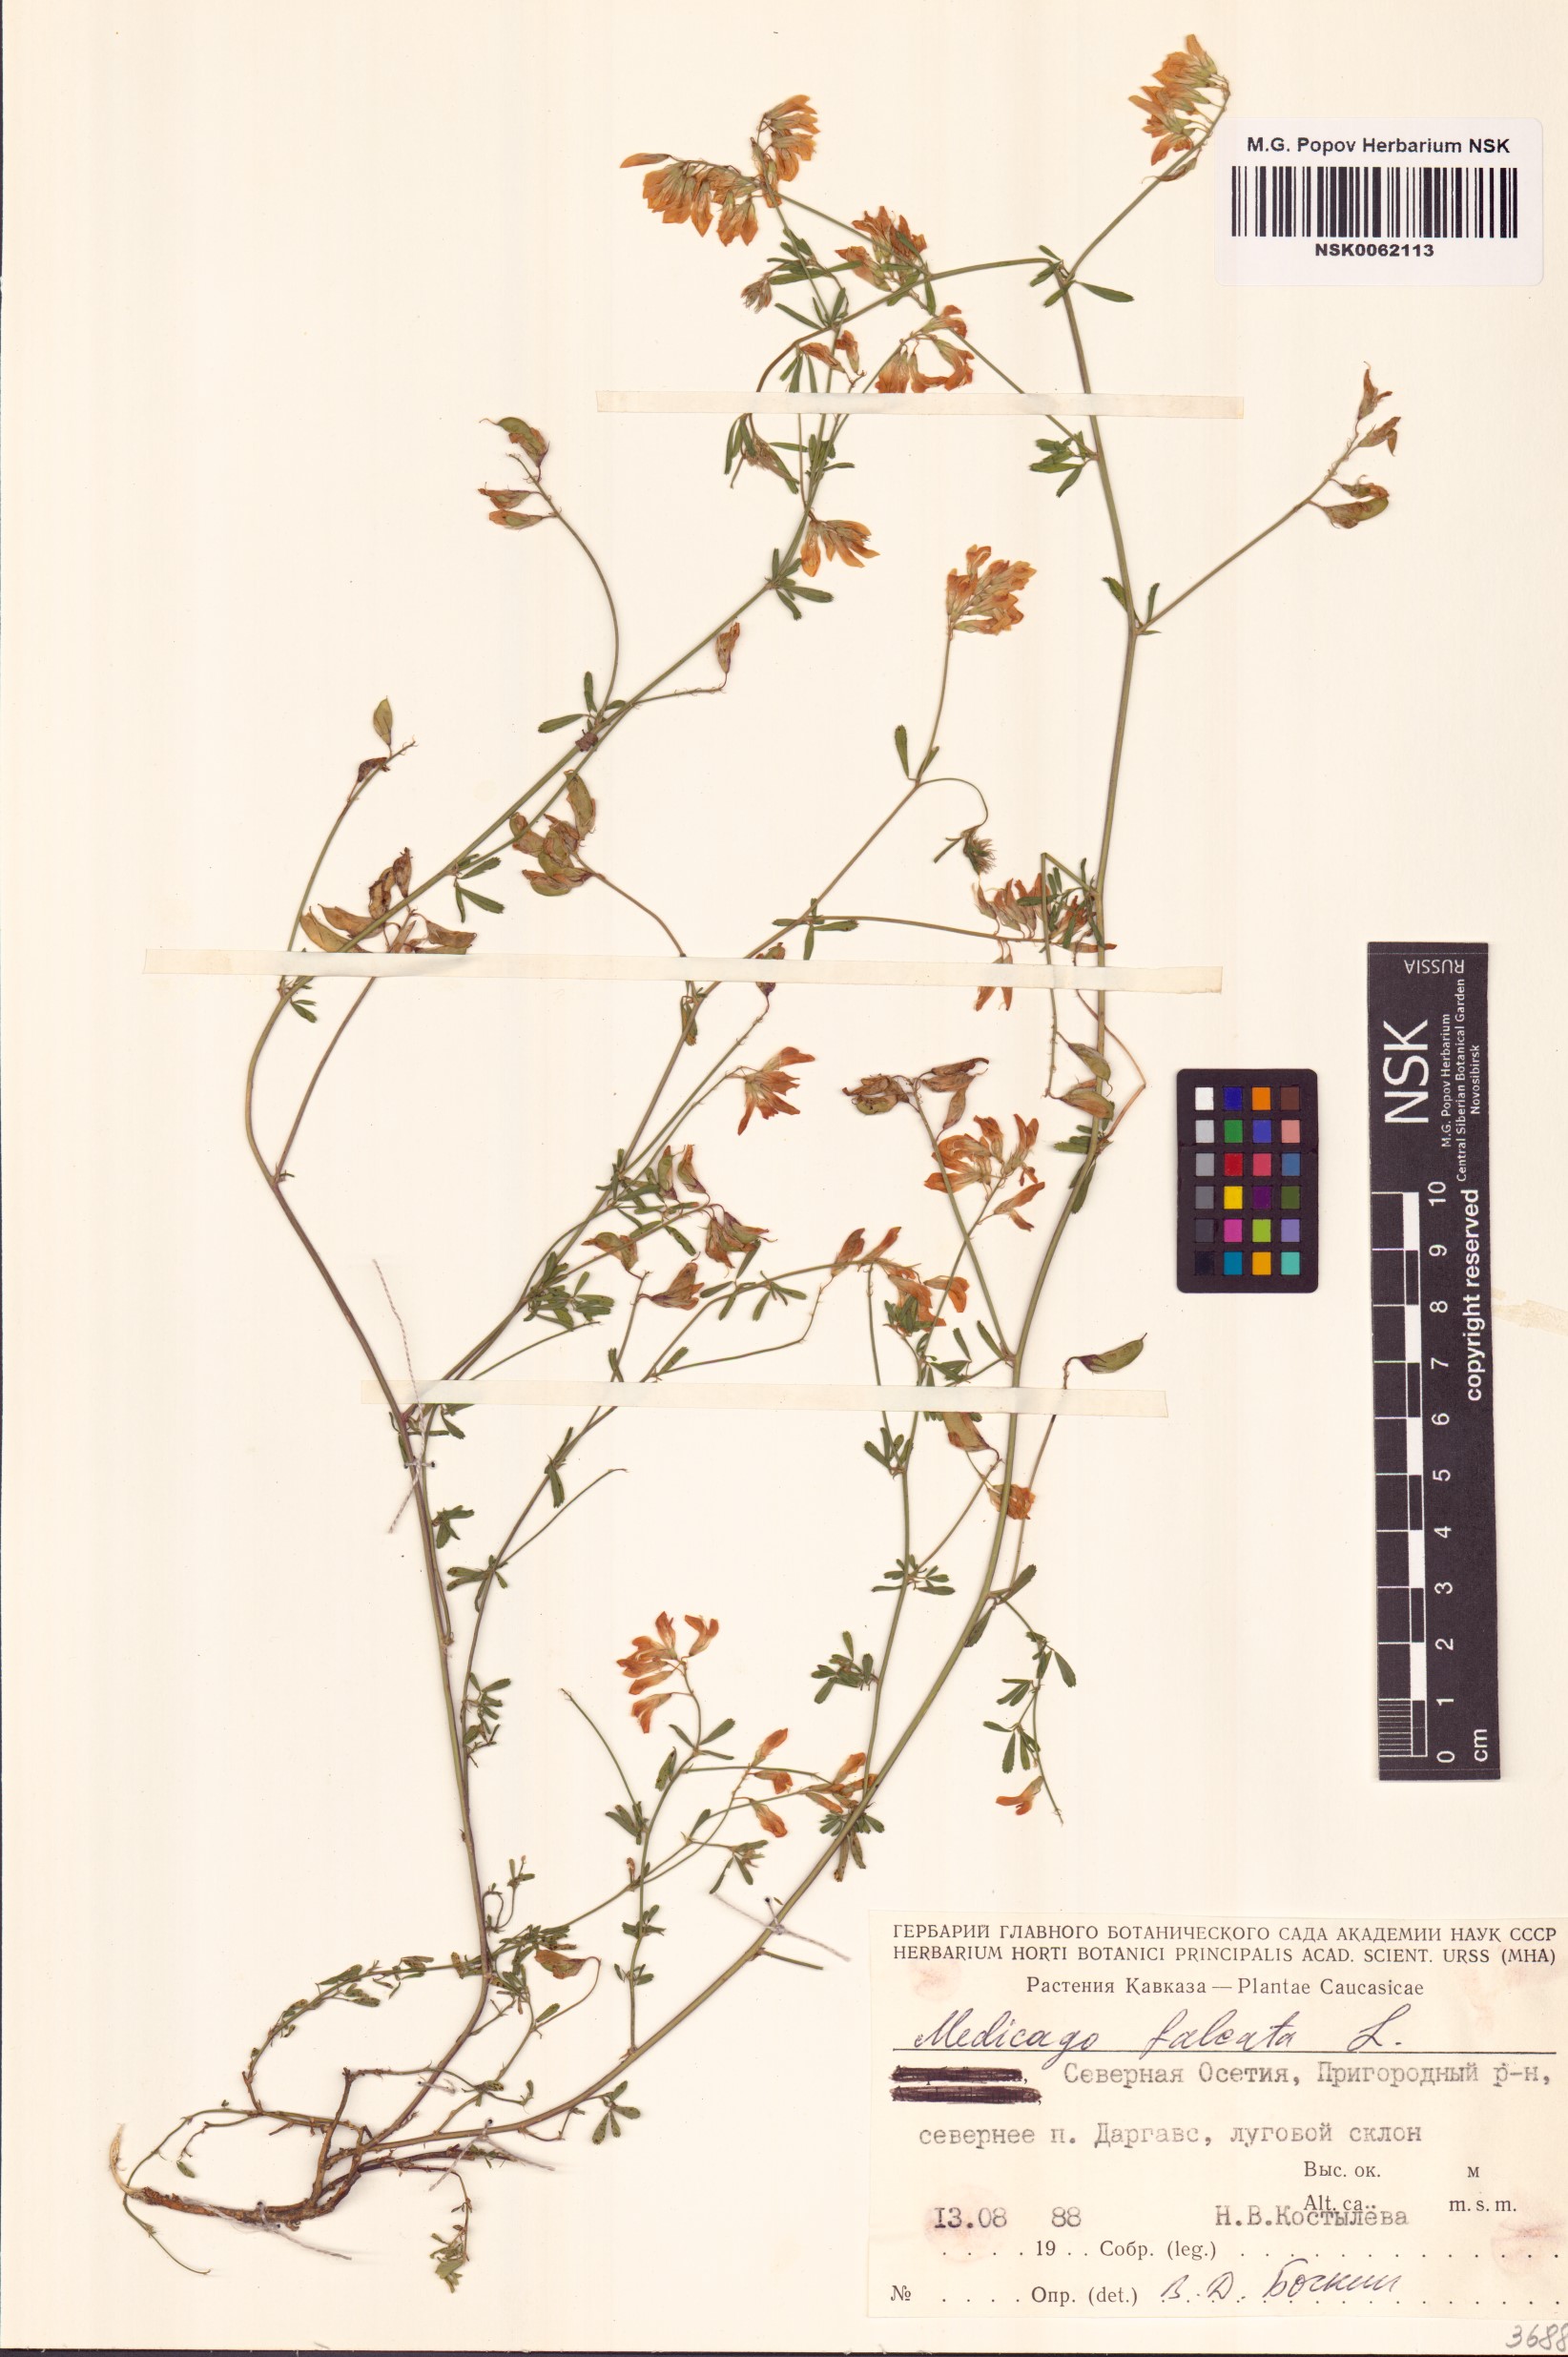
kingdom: Plantae
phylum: Tracheophyta
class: Magnoliopsida
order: Fabales
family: Fabaceae
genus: Medicago
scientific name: Medicago falcata
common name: Sickle medick
